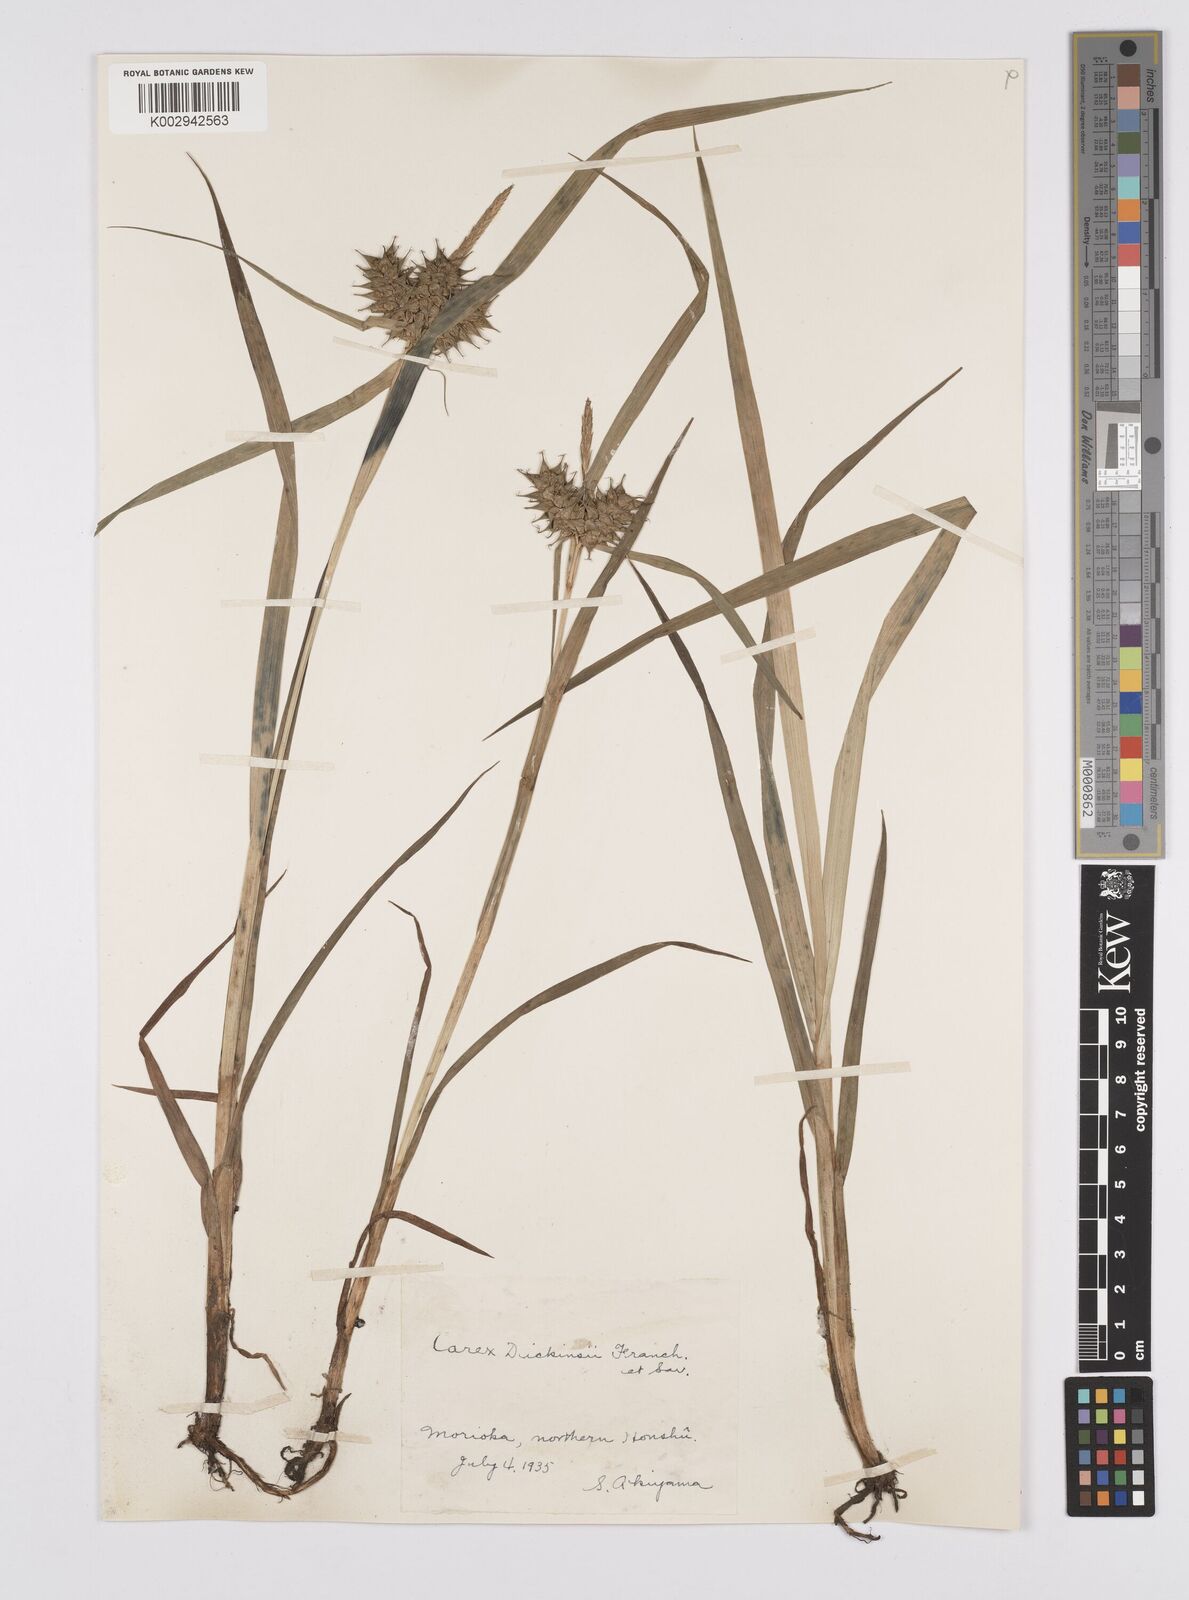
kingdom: Plantae
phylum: Tracheophyta
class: Liliopsida
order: Poales
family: Cyperaceae
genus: Carex
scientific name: Carex dickinsii
